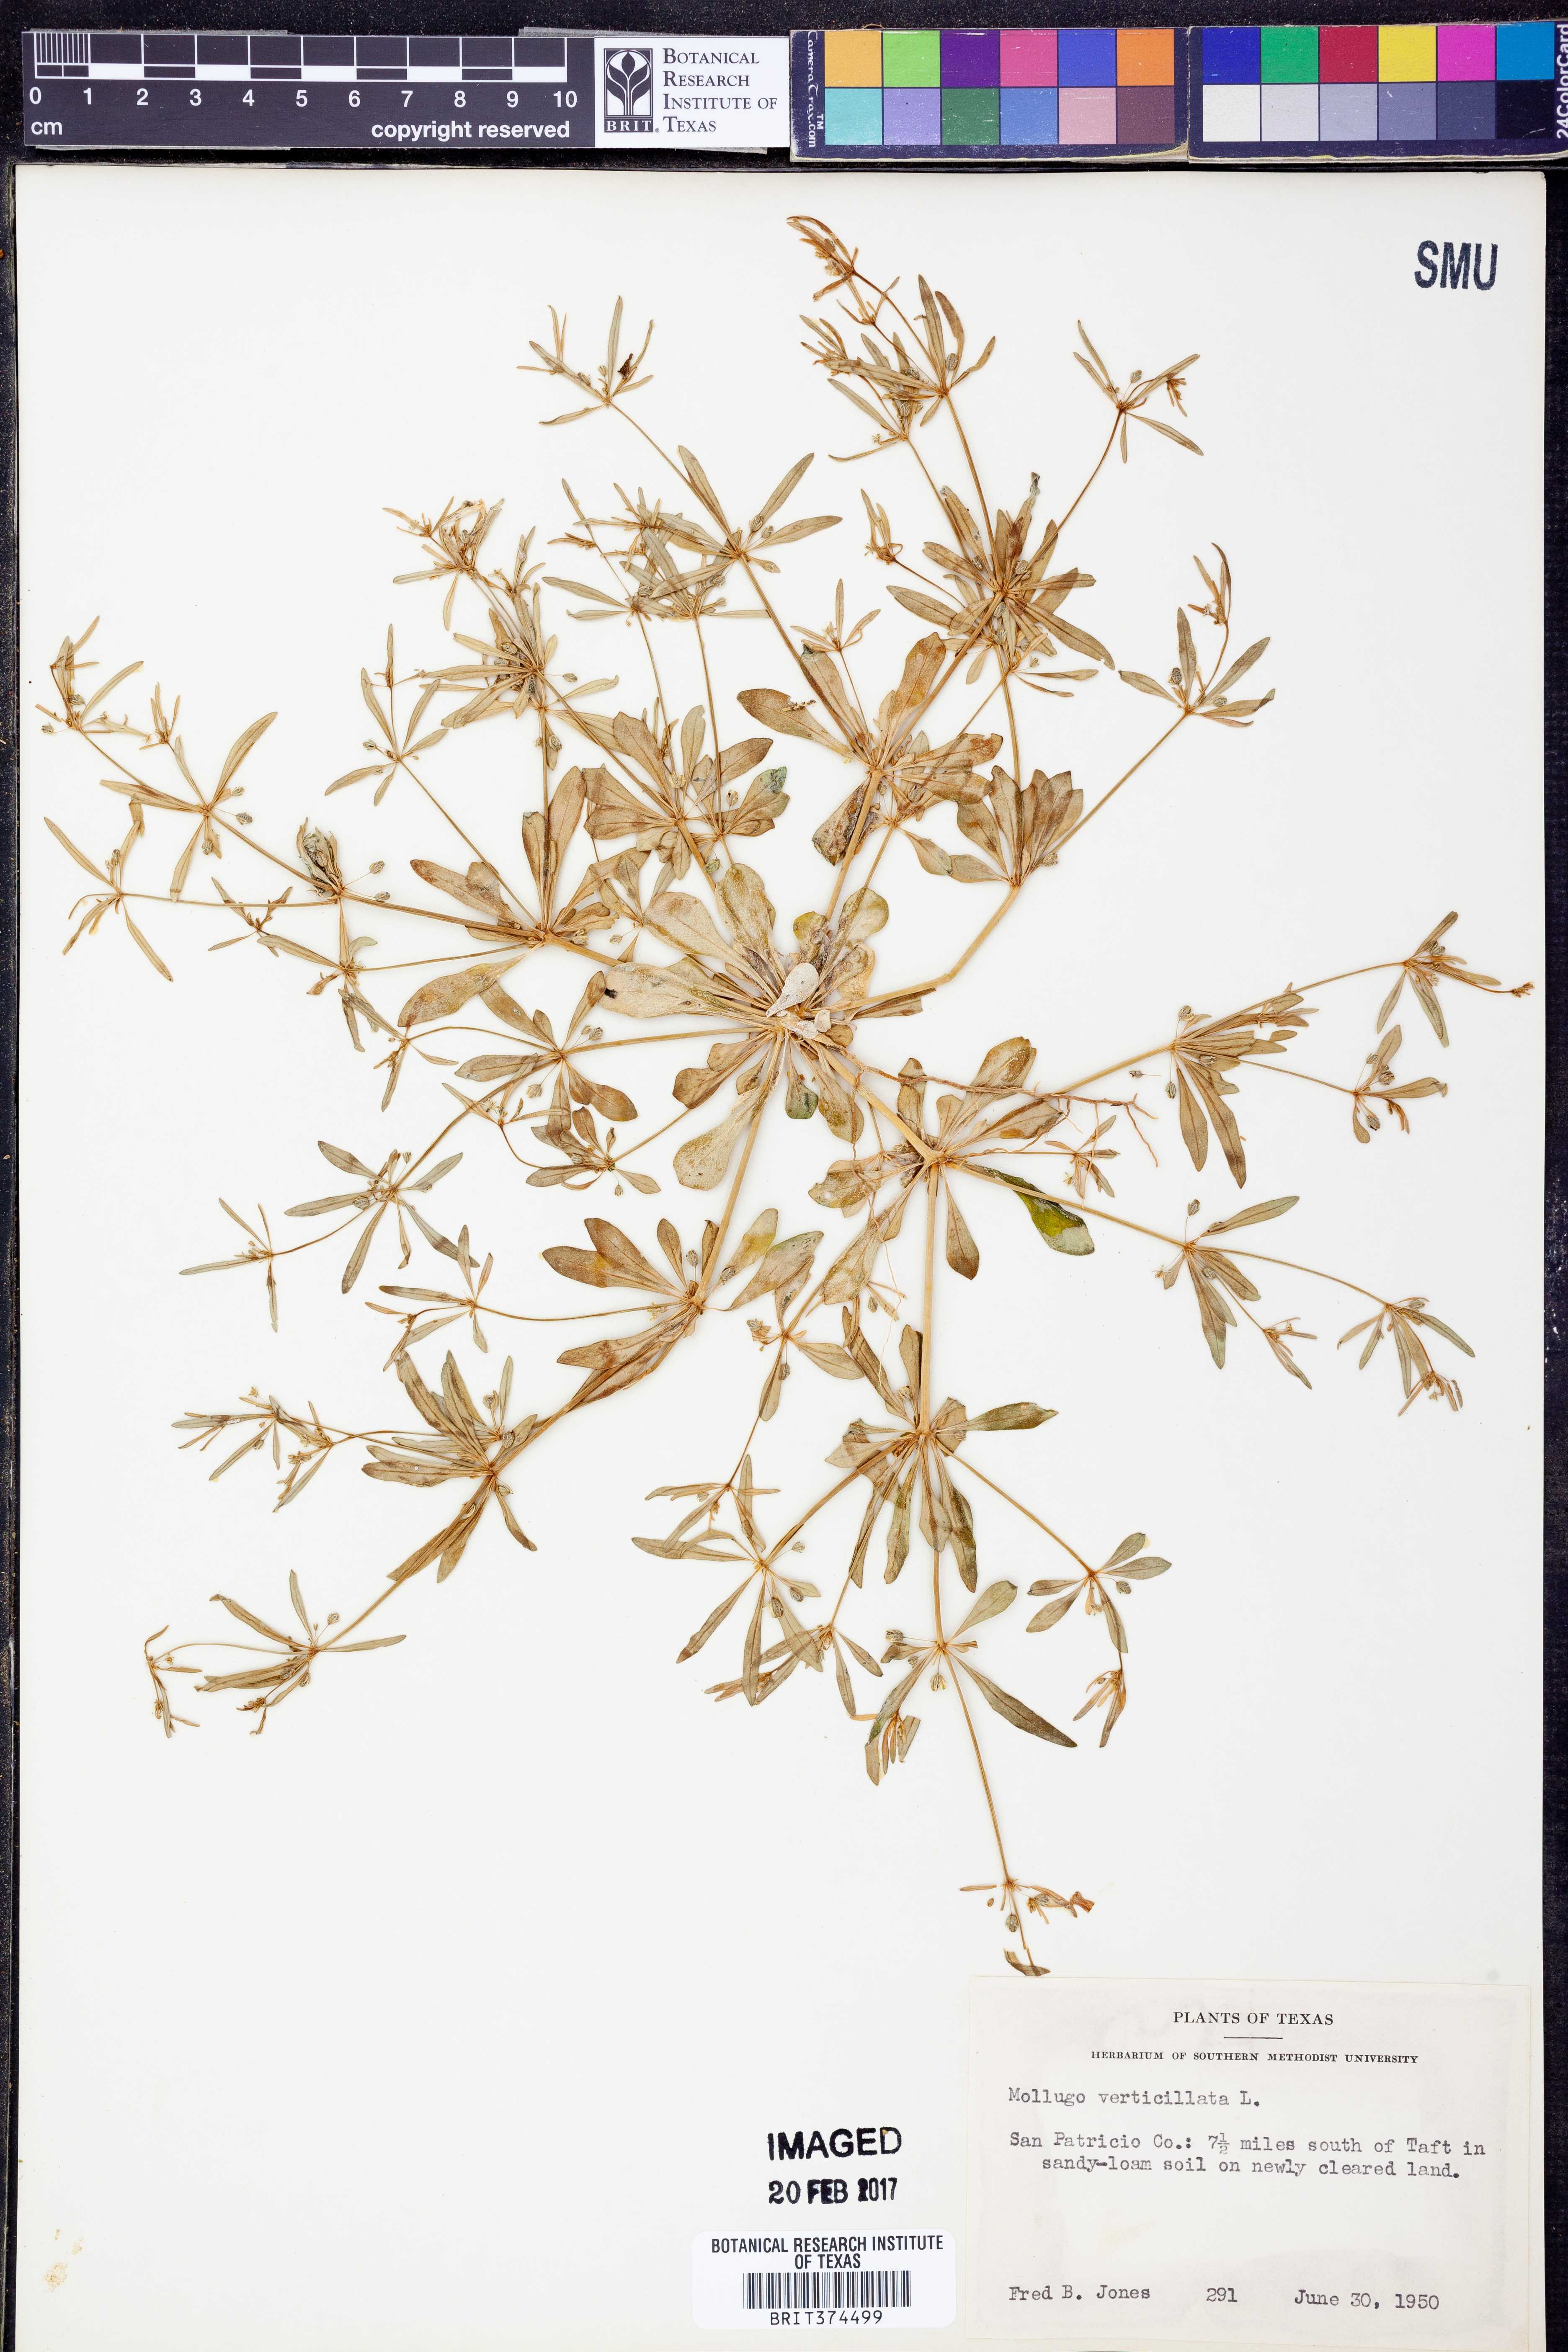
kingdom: Plantae
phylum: Tracheophyta
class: Magnoliopsida
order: Caryophyllales
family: Molluginaceae
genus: Mollugo
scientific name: Mollugo verticillata
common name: Green carpetweed
